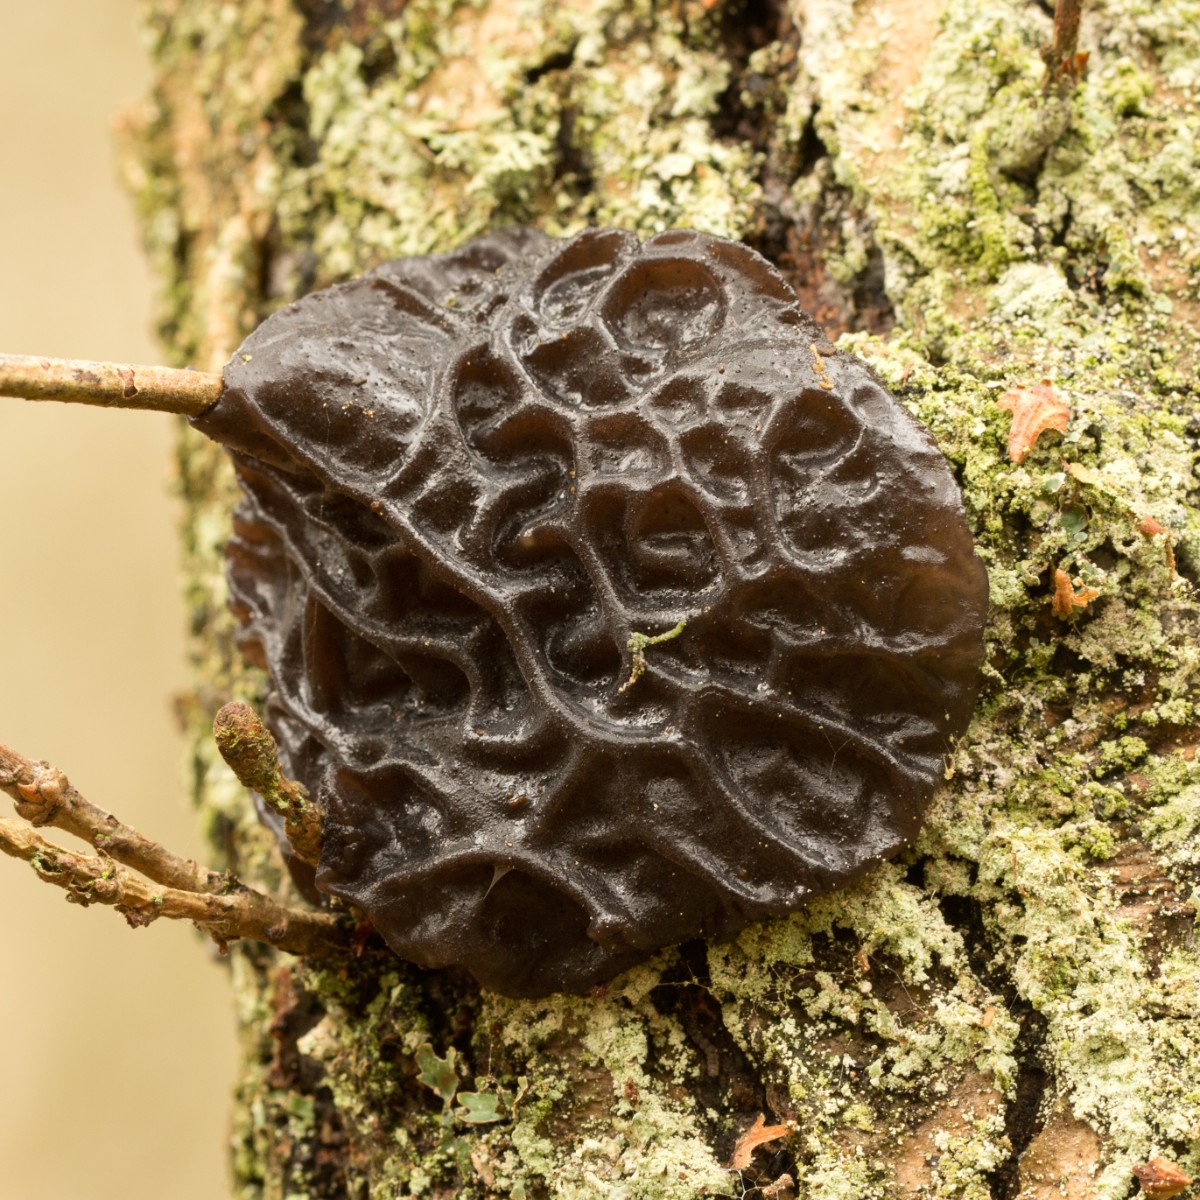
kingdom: Fungi
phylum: Basidiomycota
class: Agaricomycetes
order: Auriculariales
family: Auriculariaceae
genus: Exidia
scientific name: Exidia glandulosa
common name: ege-bævretop
